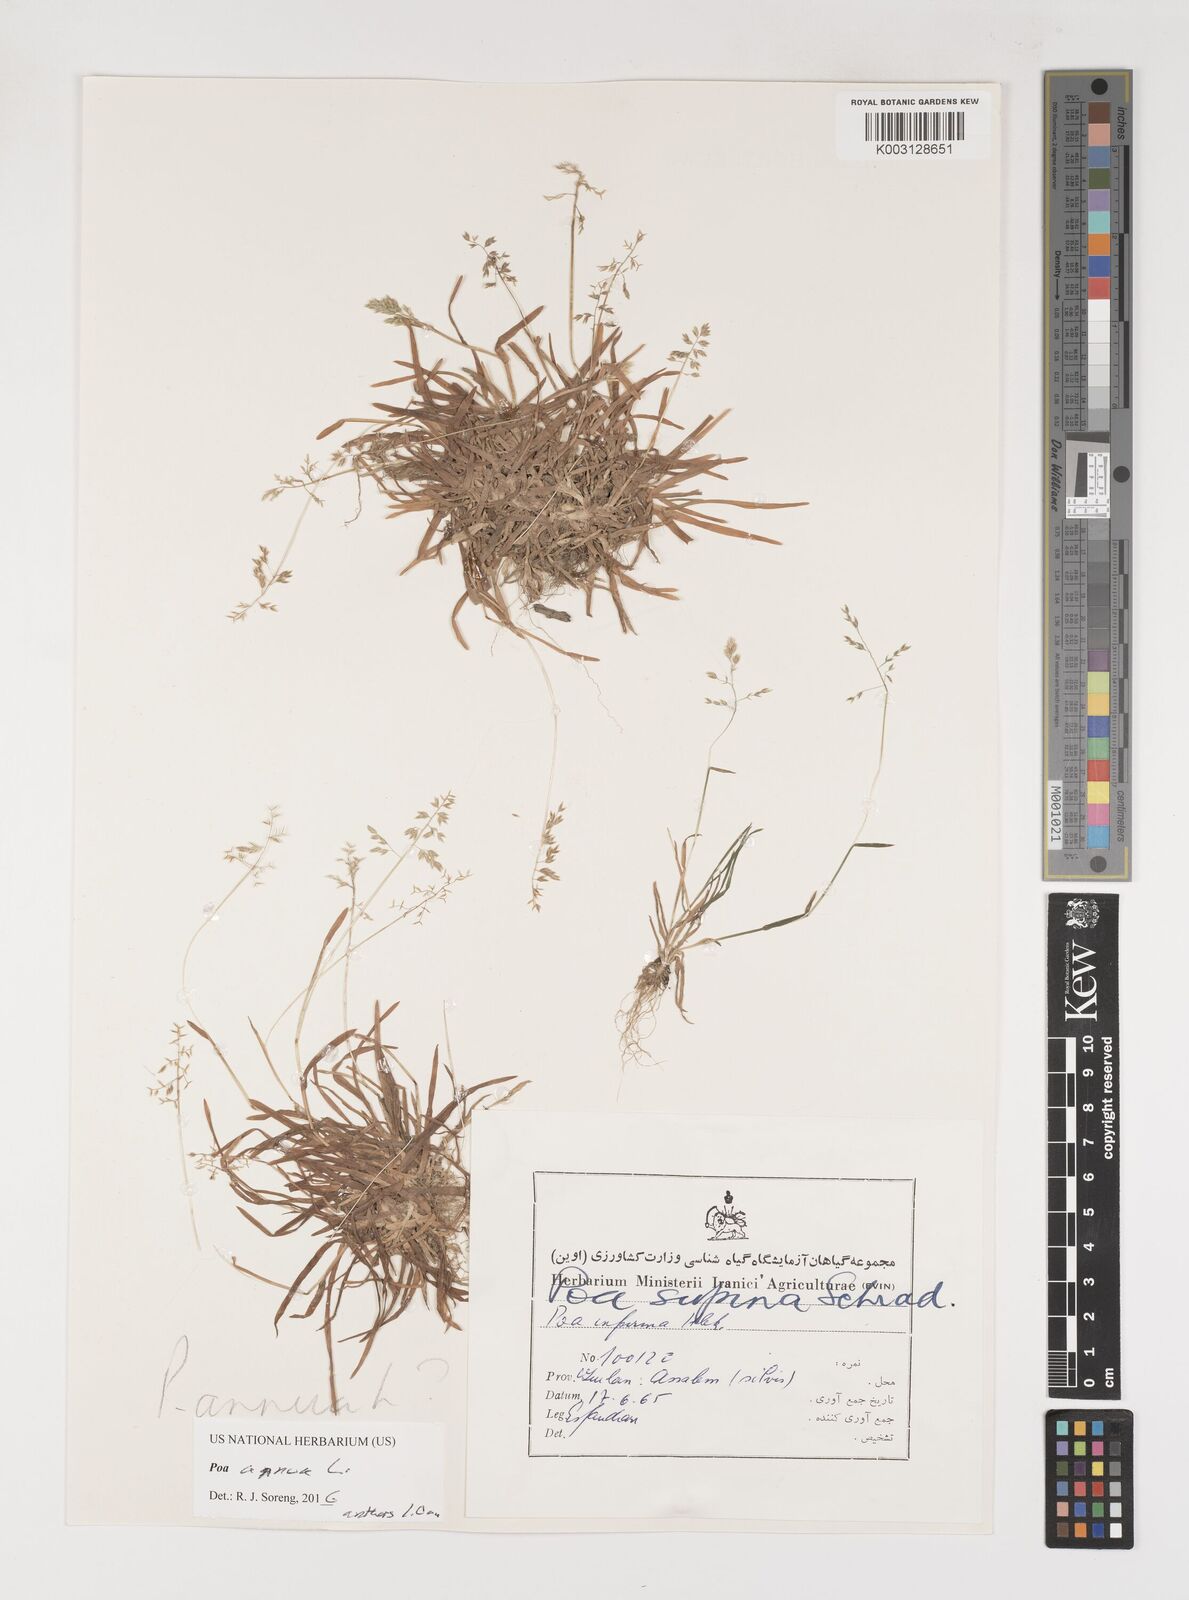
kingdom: Plantae
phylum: Tracheophyta
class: Liliopsida
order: Poales
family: Poaceae
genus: Poa
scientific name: Poa annua
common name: Annual bluegrass
